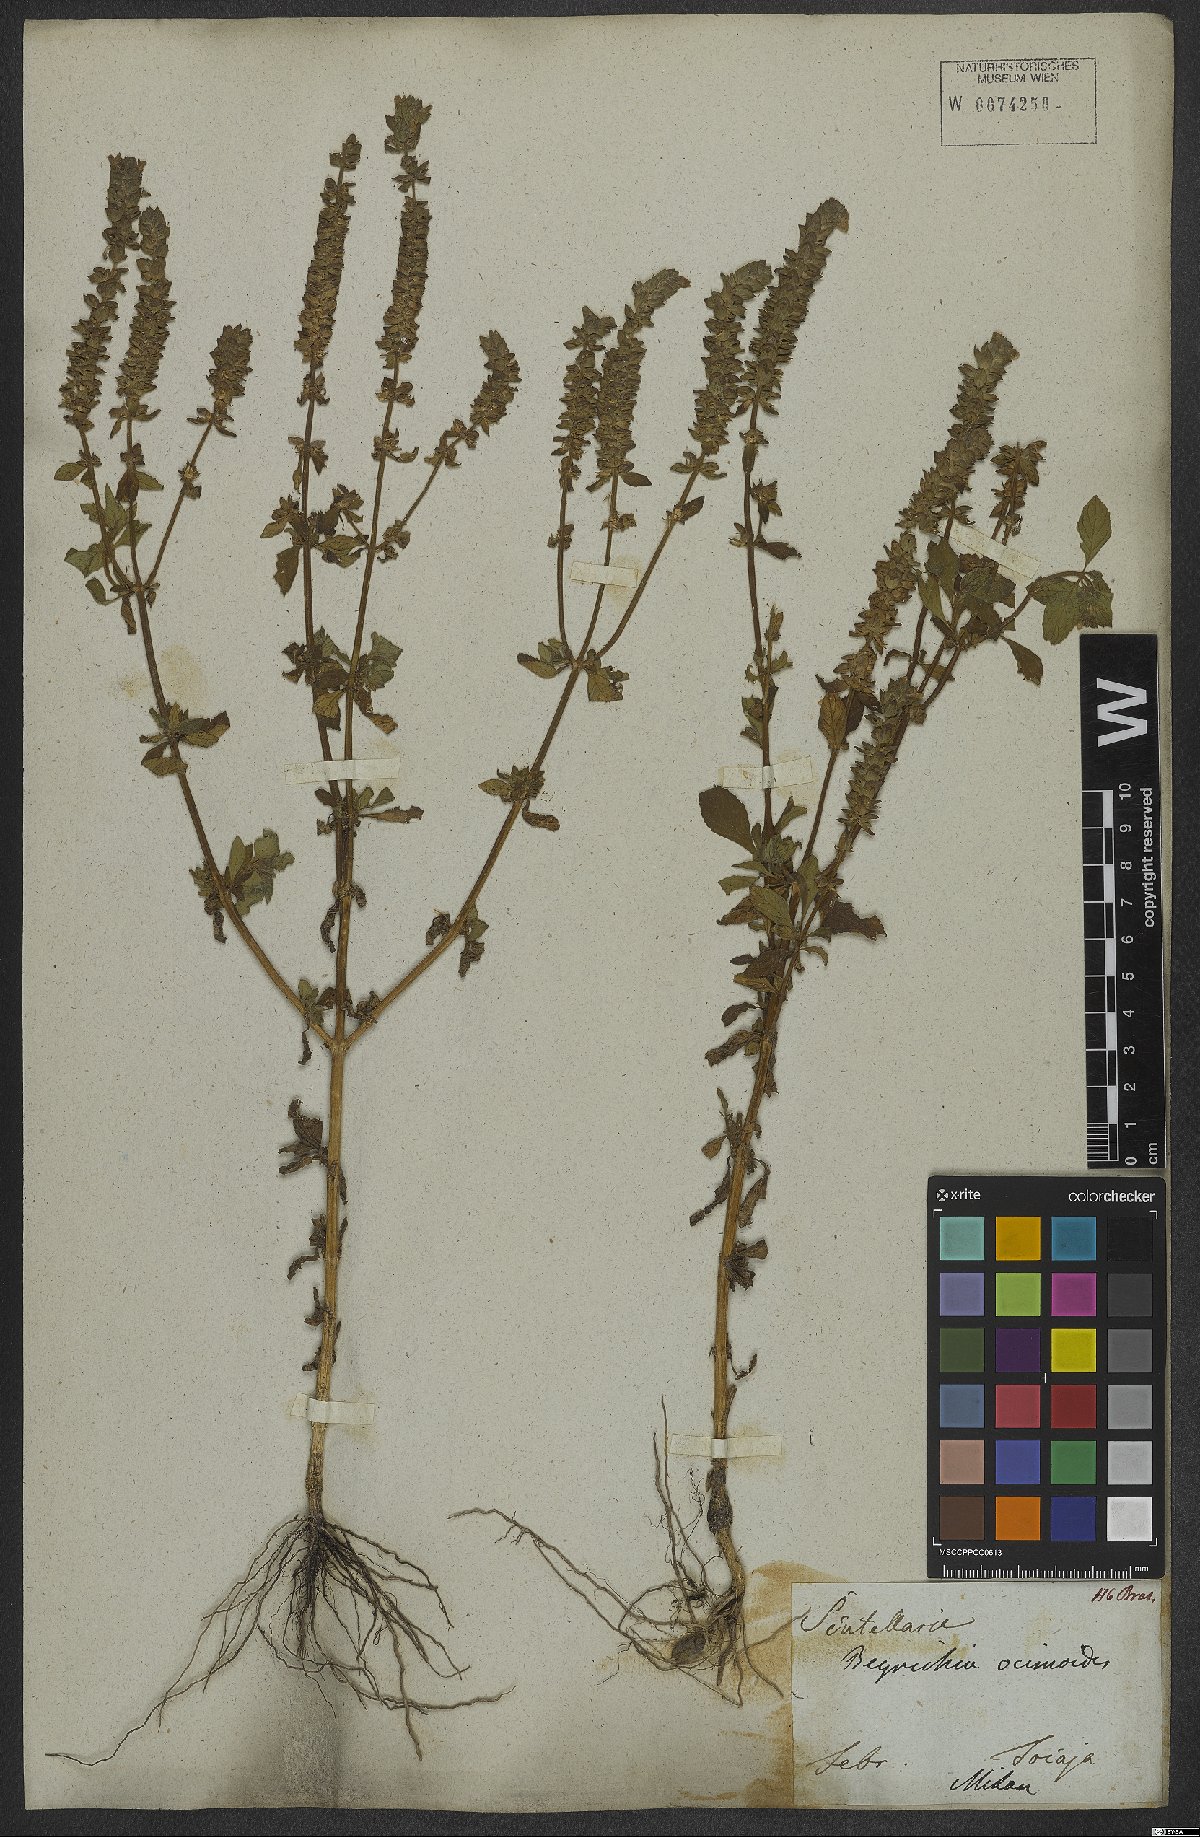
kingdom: Plantae
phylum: Tracheophyta
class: Magnoliopsida
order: Lamiales
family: Plantaginaceae
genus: Matourea
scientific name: Matourea ocymoides
